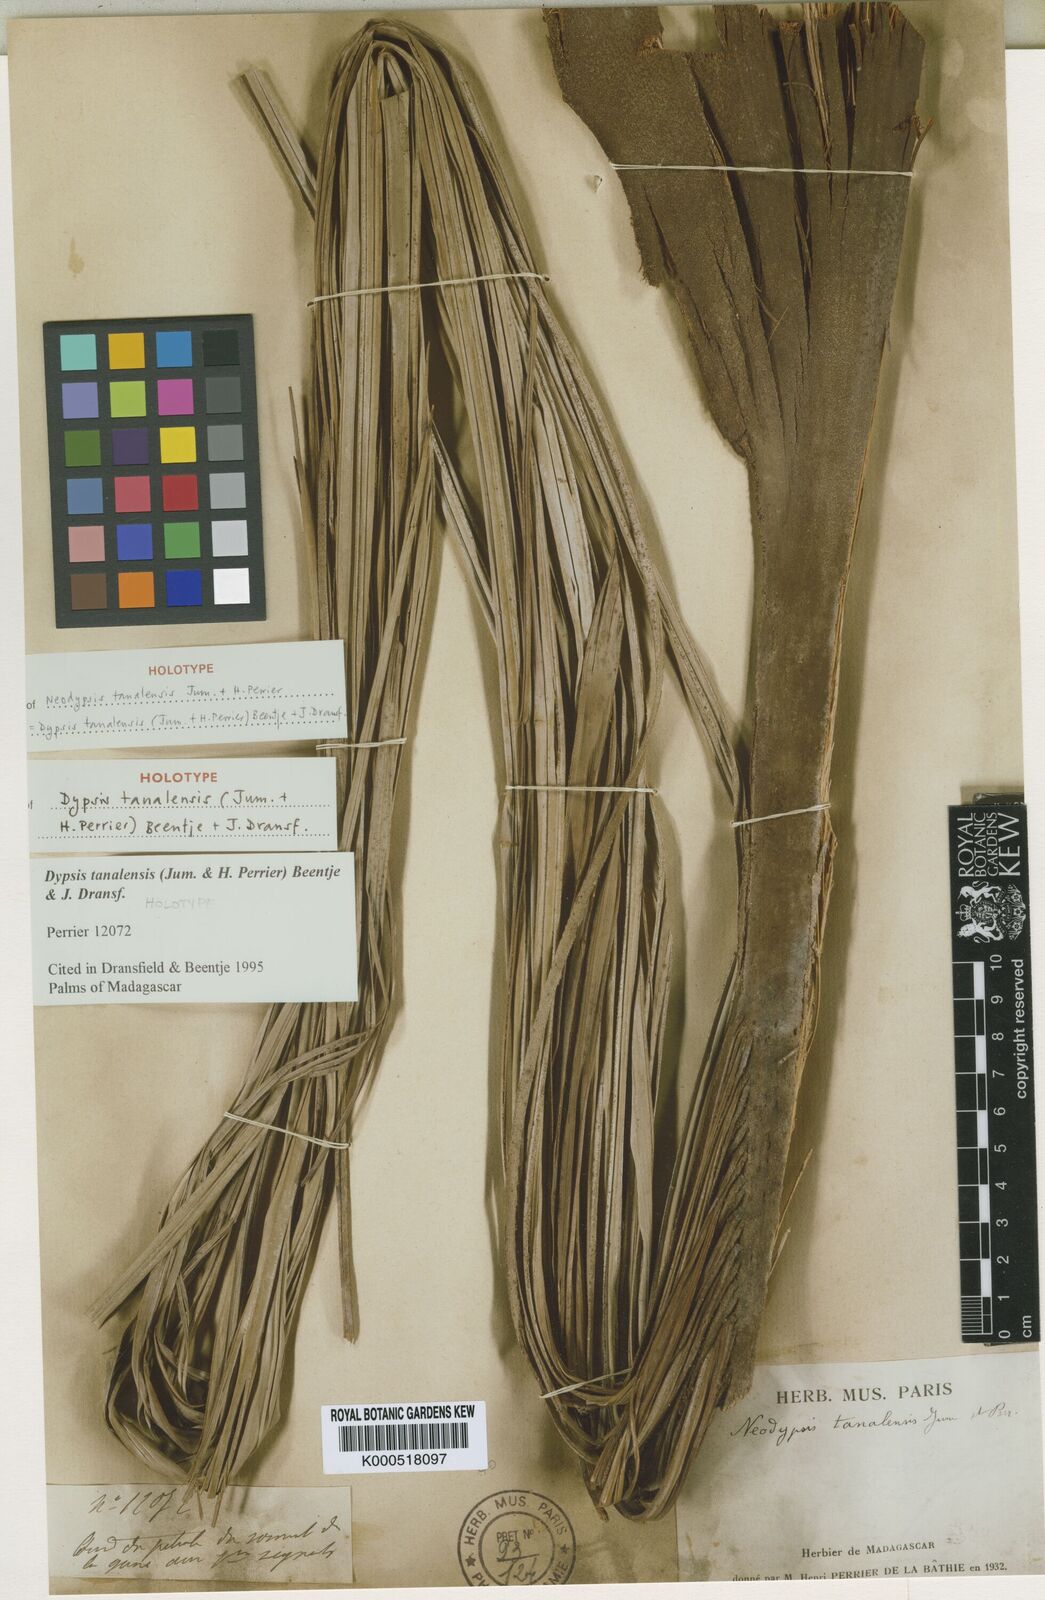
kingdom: Plantae
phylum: Tracheophyta
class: Liliopsida
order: Arecales
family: Arecaceae
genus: Dypsis
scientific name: Dypsis tanalensis
